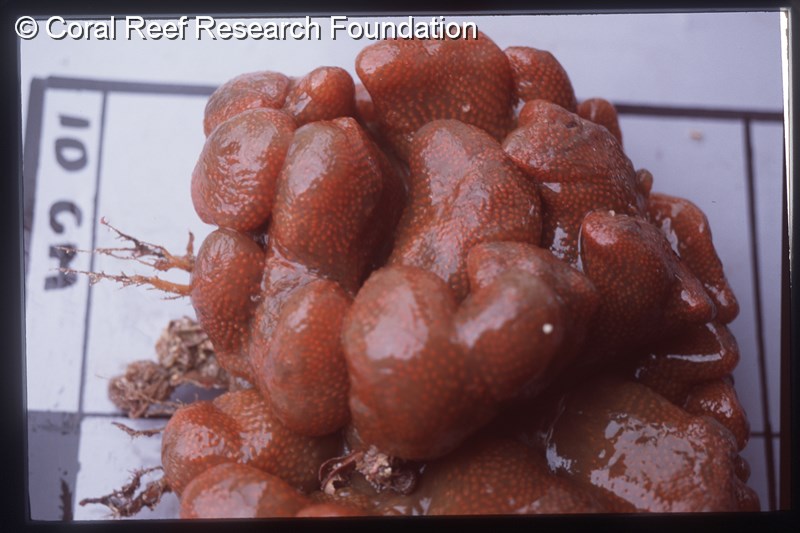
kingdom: Animalia
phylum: Chordata
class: Ascidiacea
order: Aplousobranchia
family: Pseudodistomidae
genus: Pseudodistoma
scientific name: Pseudodistoma
